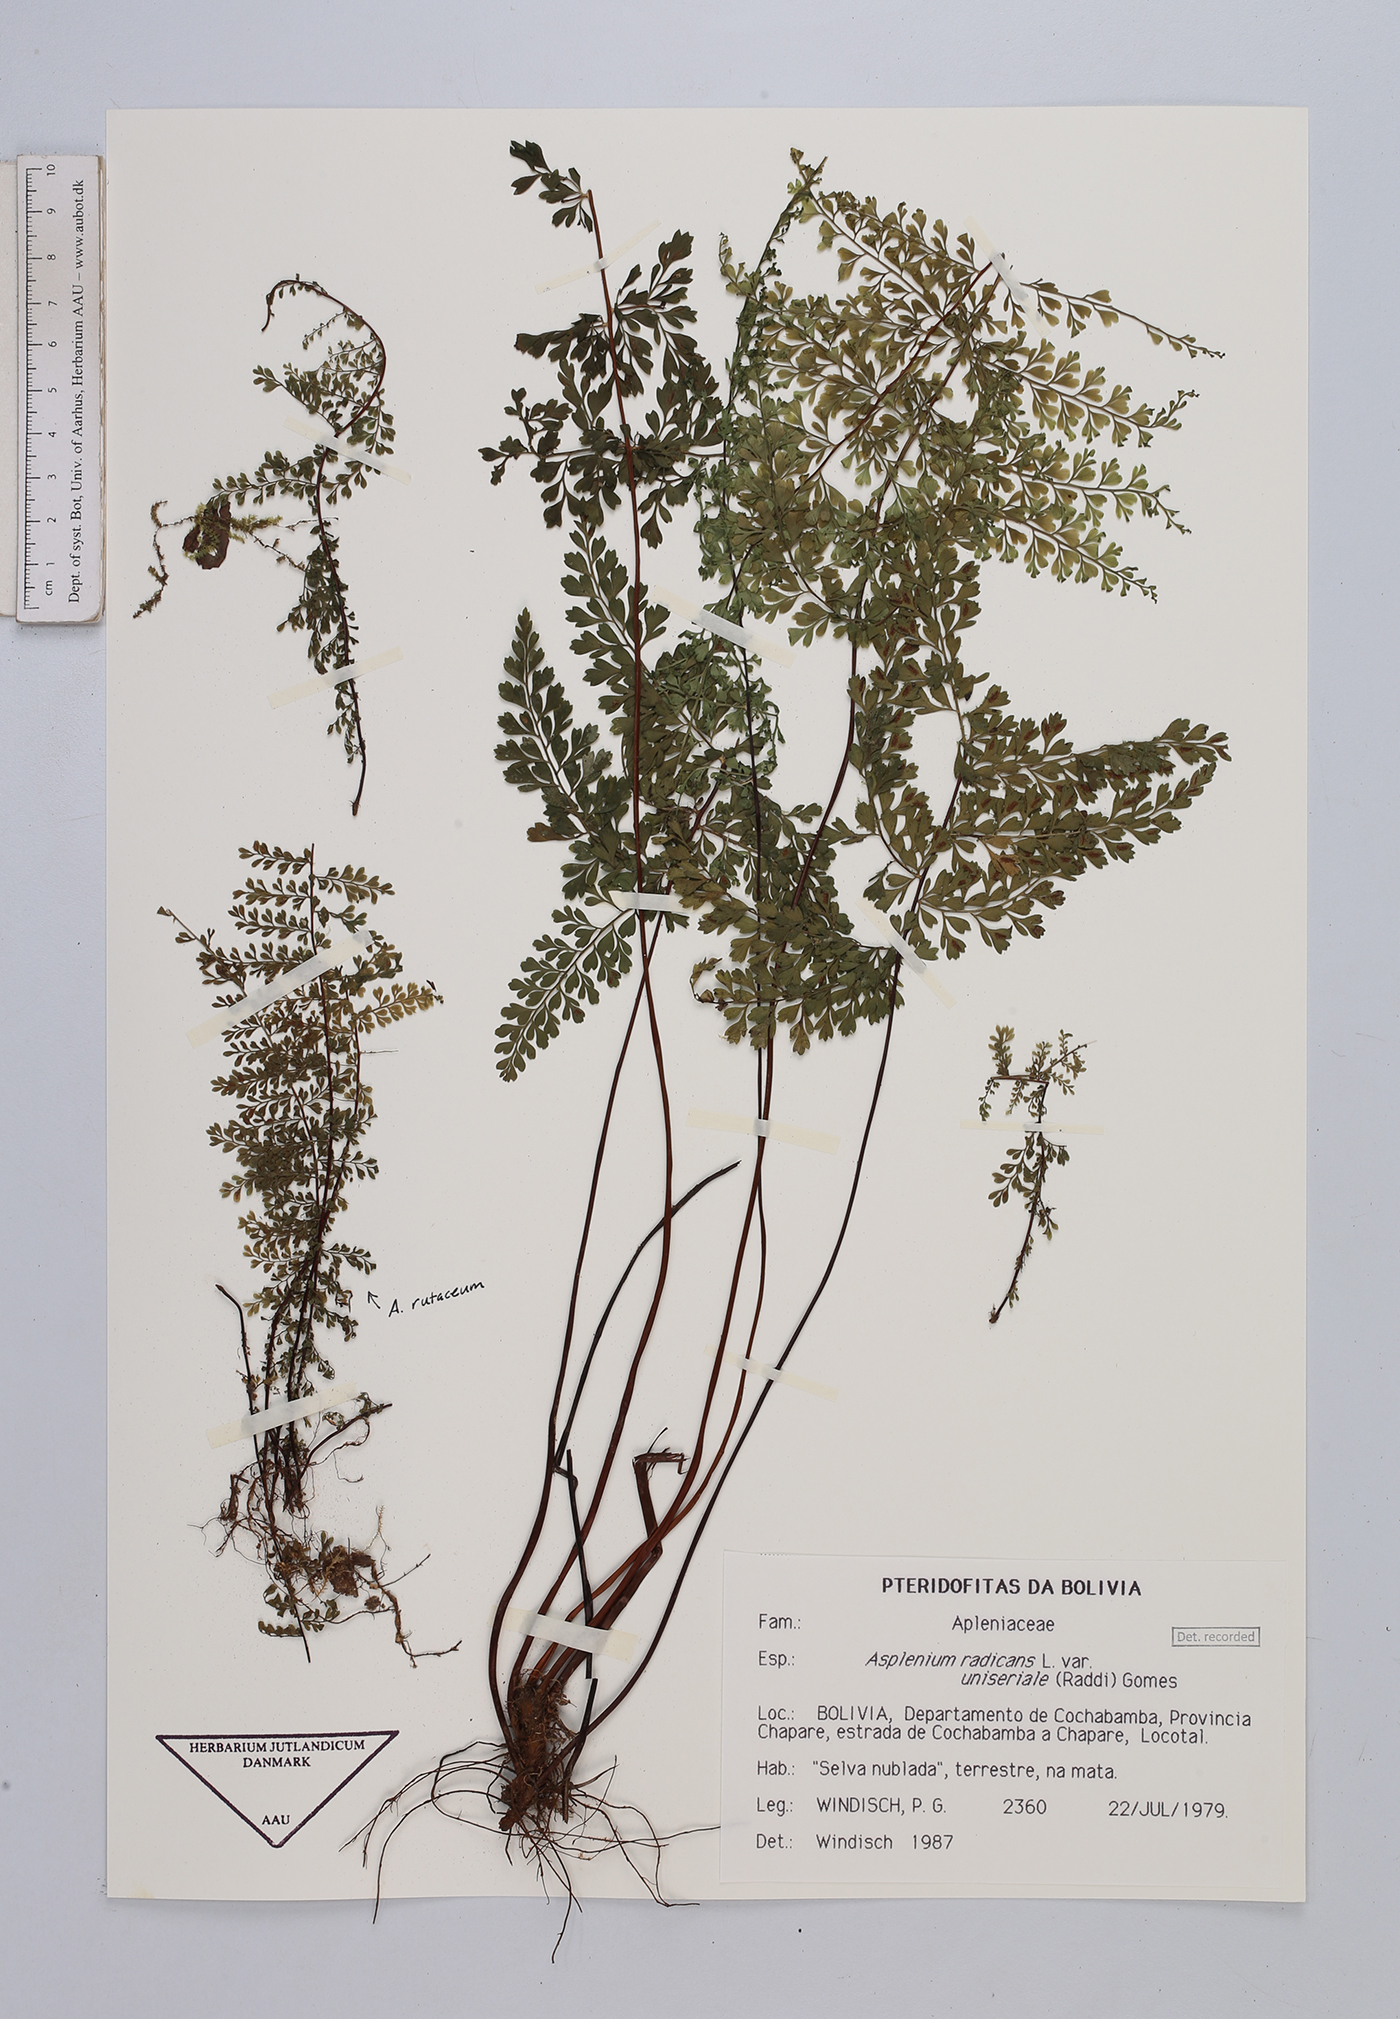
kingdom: Plantae
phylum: Tracheophyta
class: Polypodiopsida
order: Polypodiales
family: Aspleniaceae
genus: Asplenium
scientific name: Asplenium uniseriale
